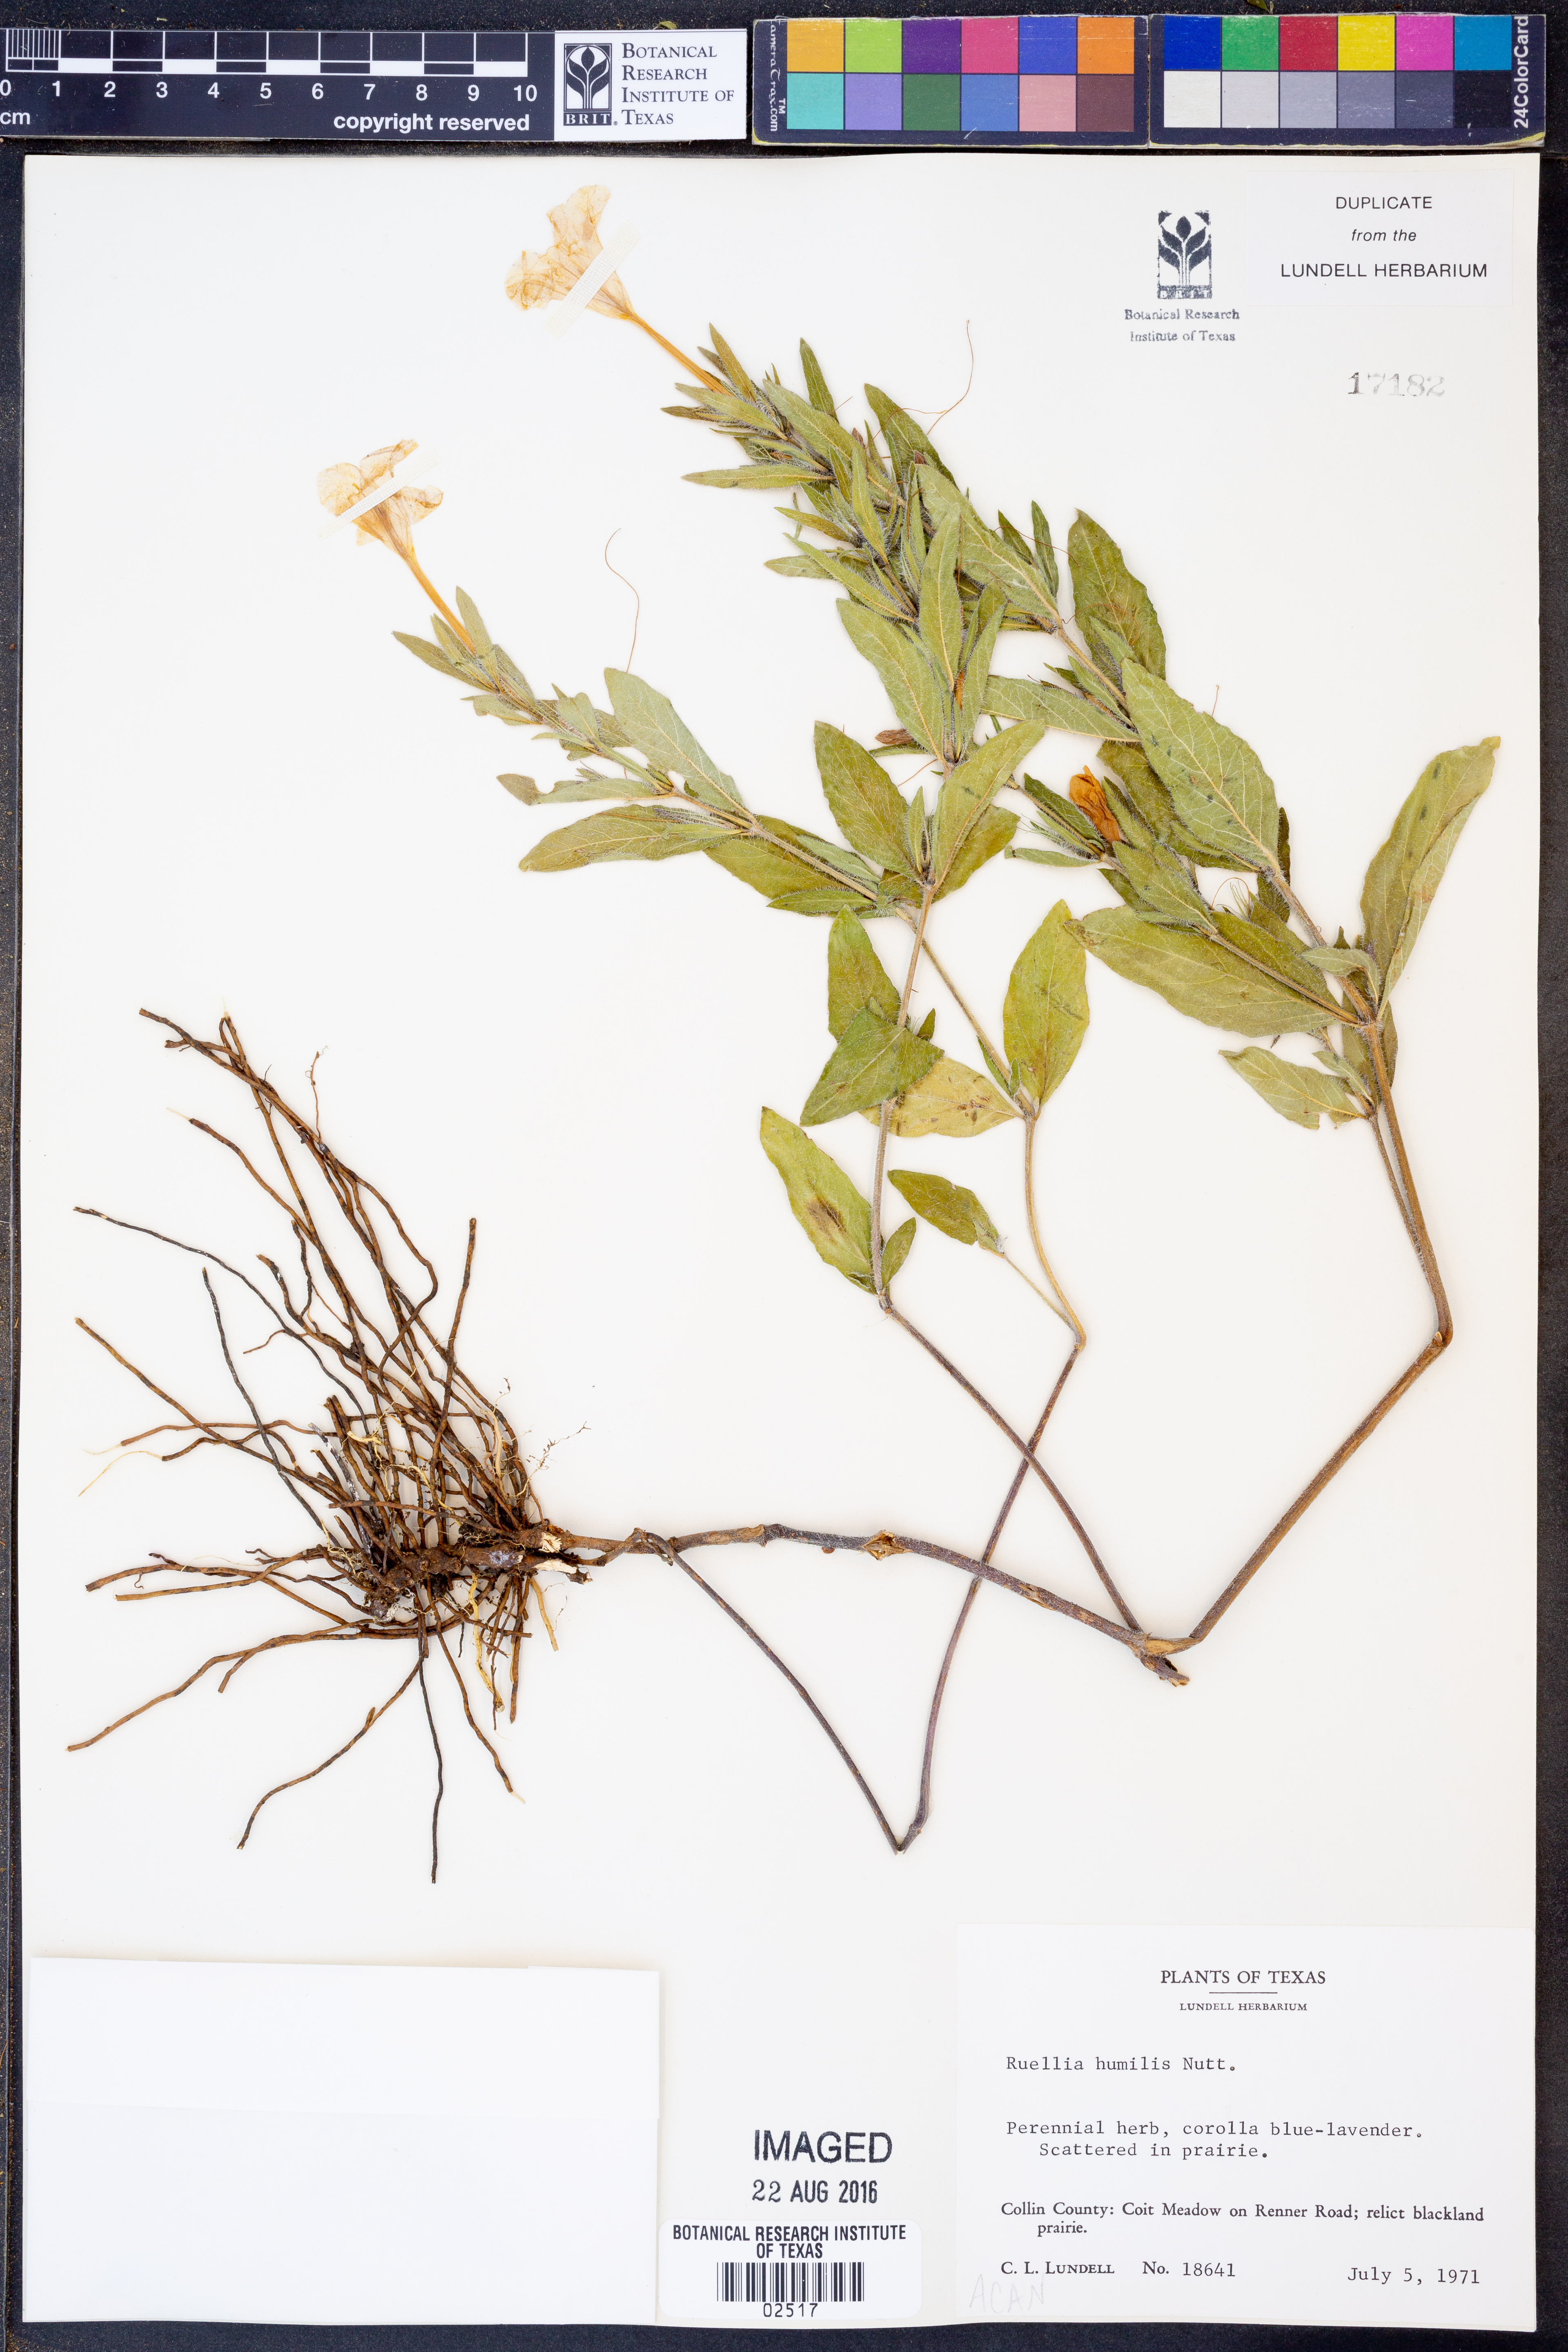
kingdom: Plantae
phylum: Tracheophyta
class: Magnoliopsida
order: Lamiales
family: Acanthaceae
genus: Ruellia
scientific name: Ruellia humilis
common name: Fringe-leaf ruellia
